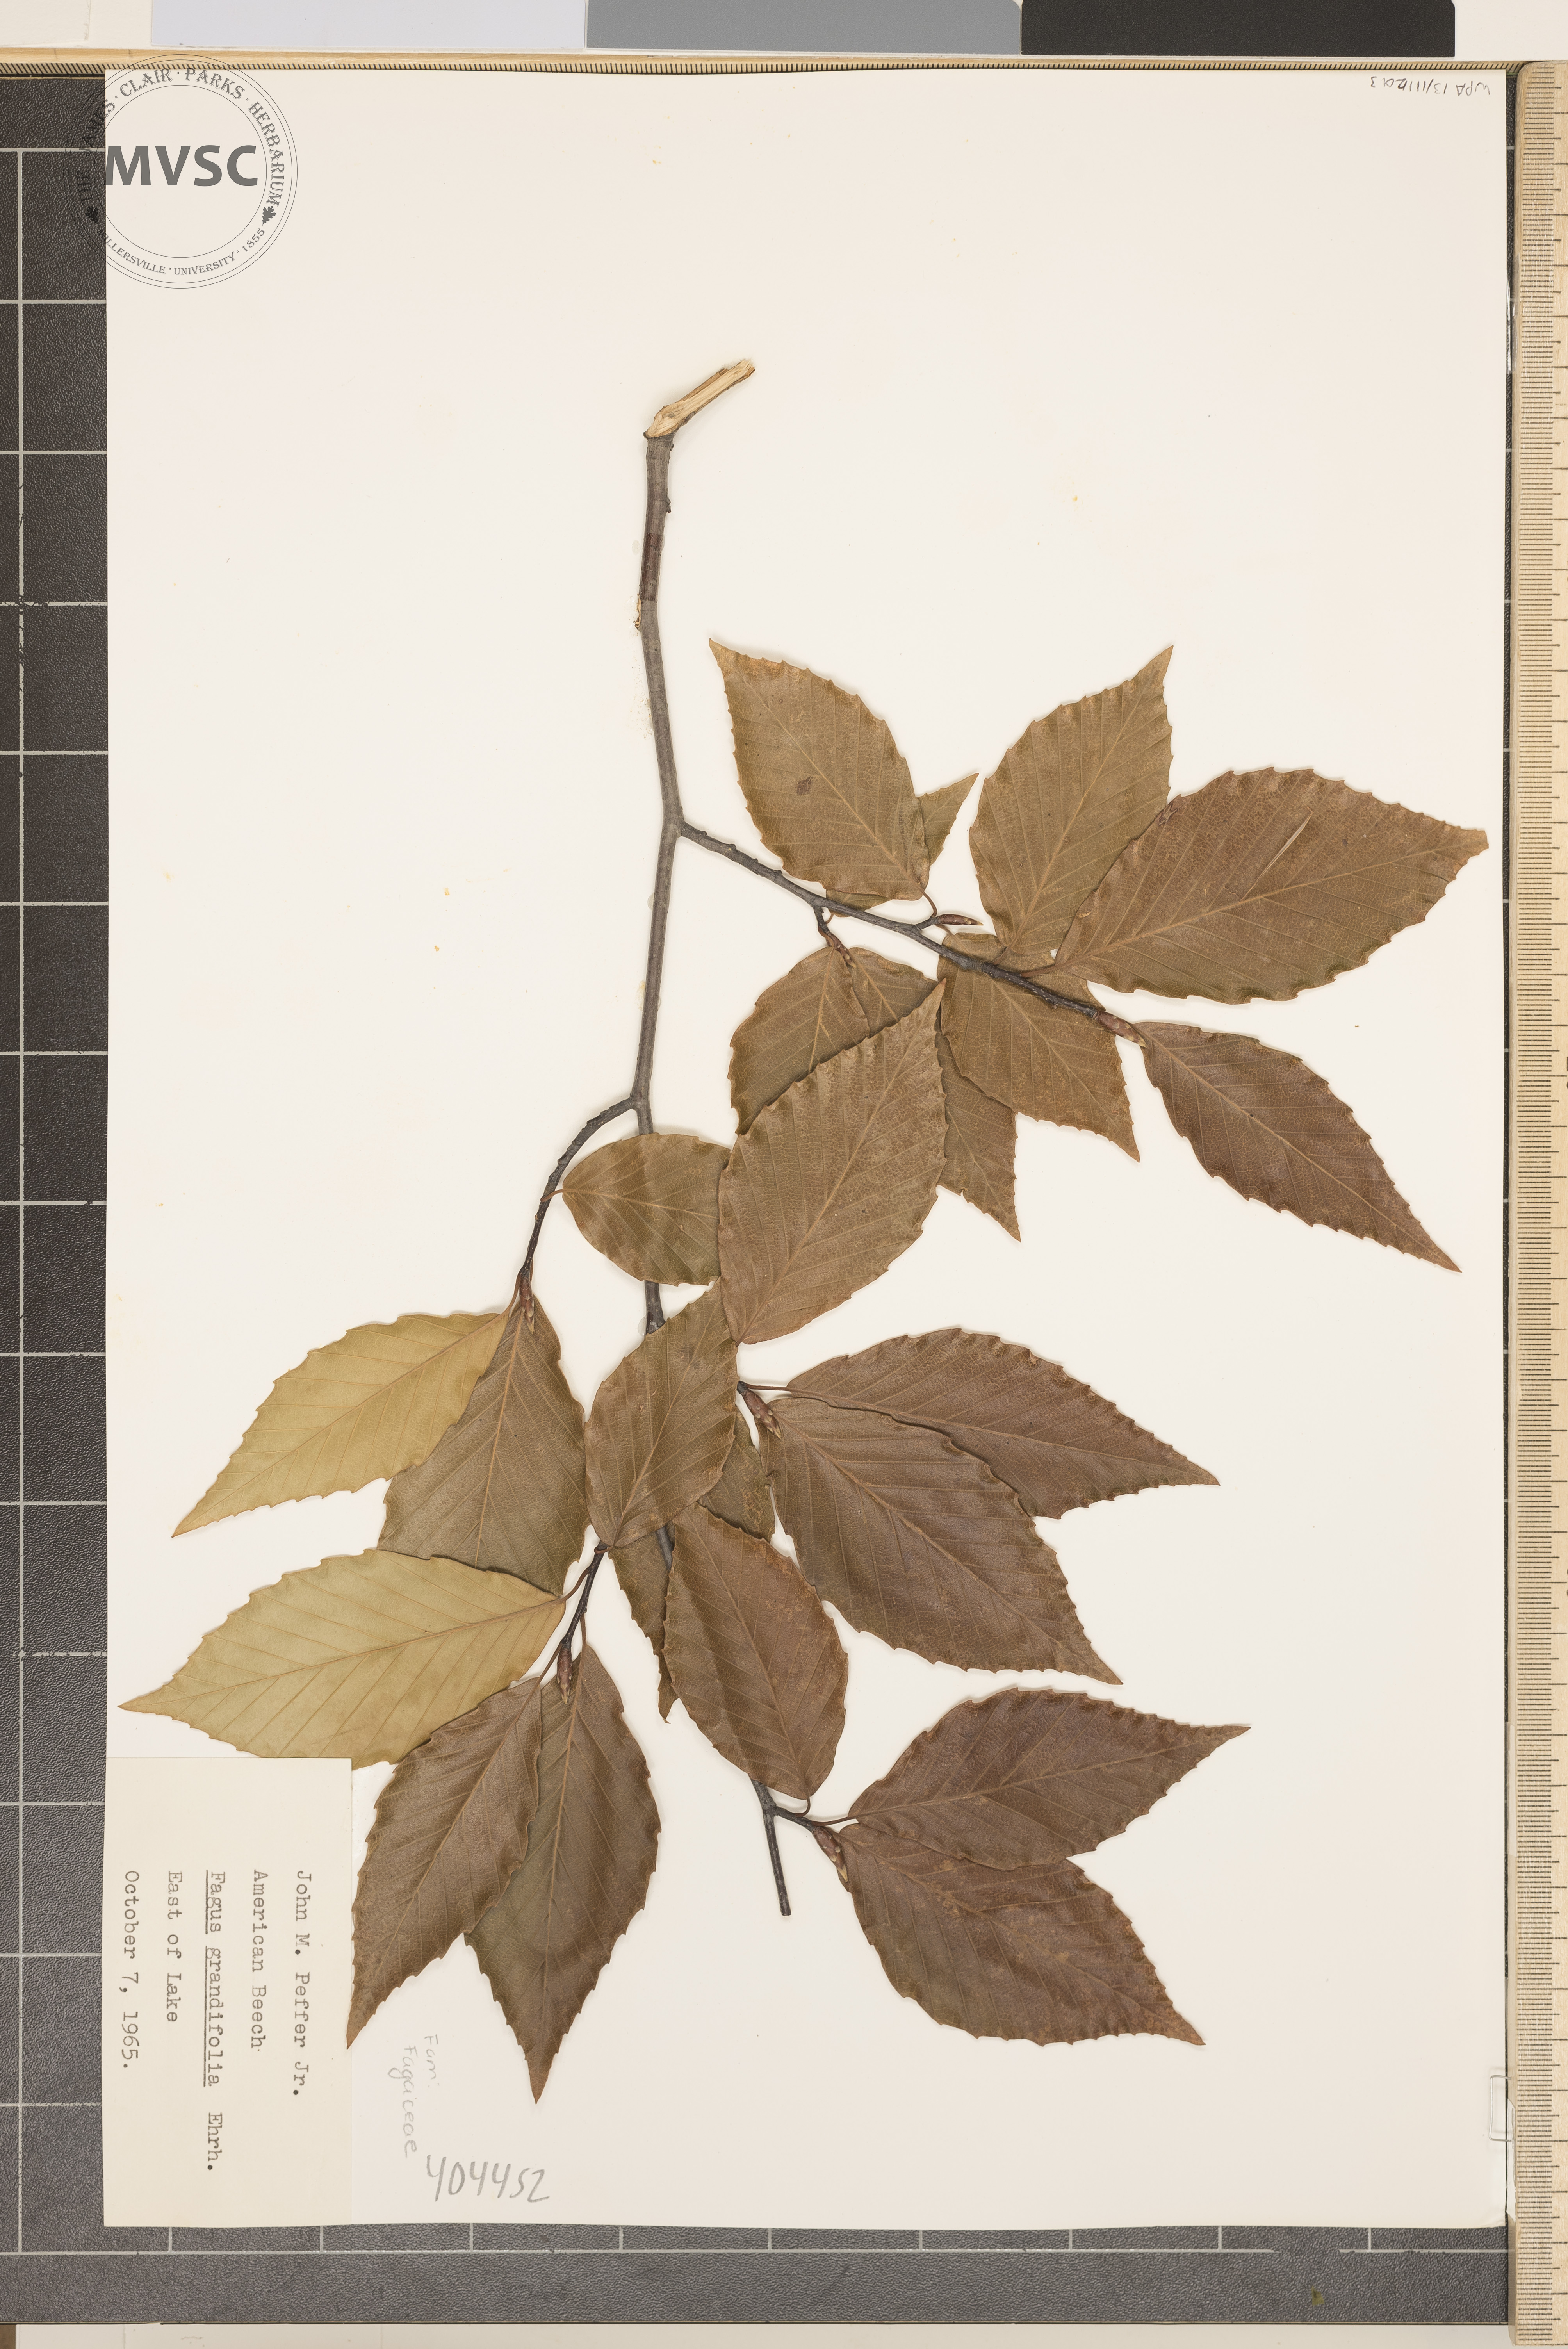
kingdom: Plantae
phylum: Tracheophyta
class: Magnoliopsida
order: Fagales
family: Fagaceae
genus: Fagus
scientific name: Fagus grandifolia
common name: American Beech
